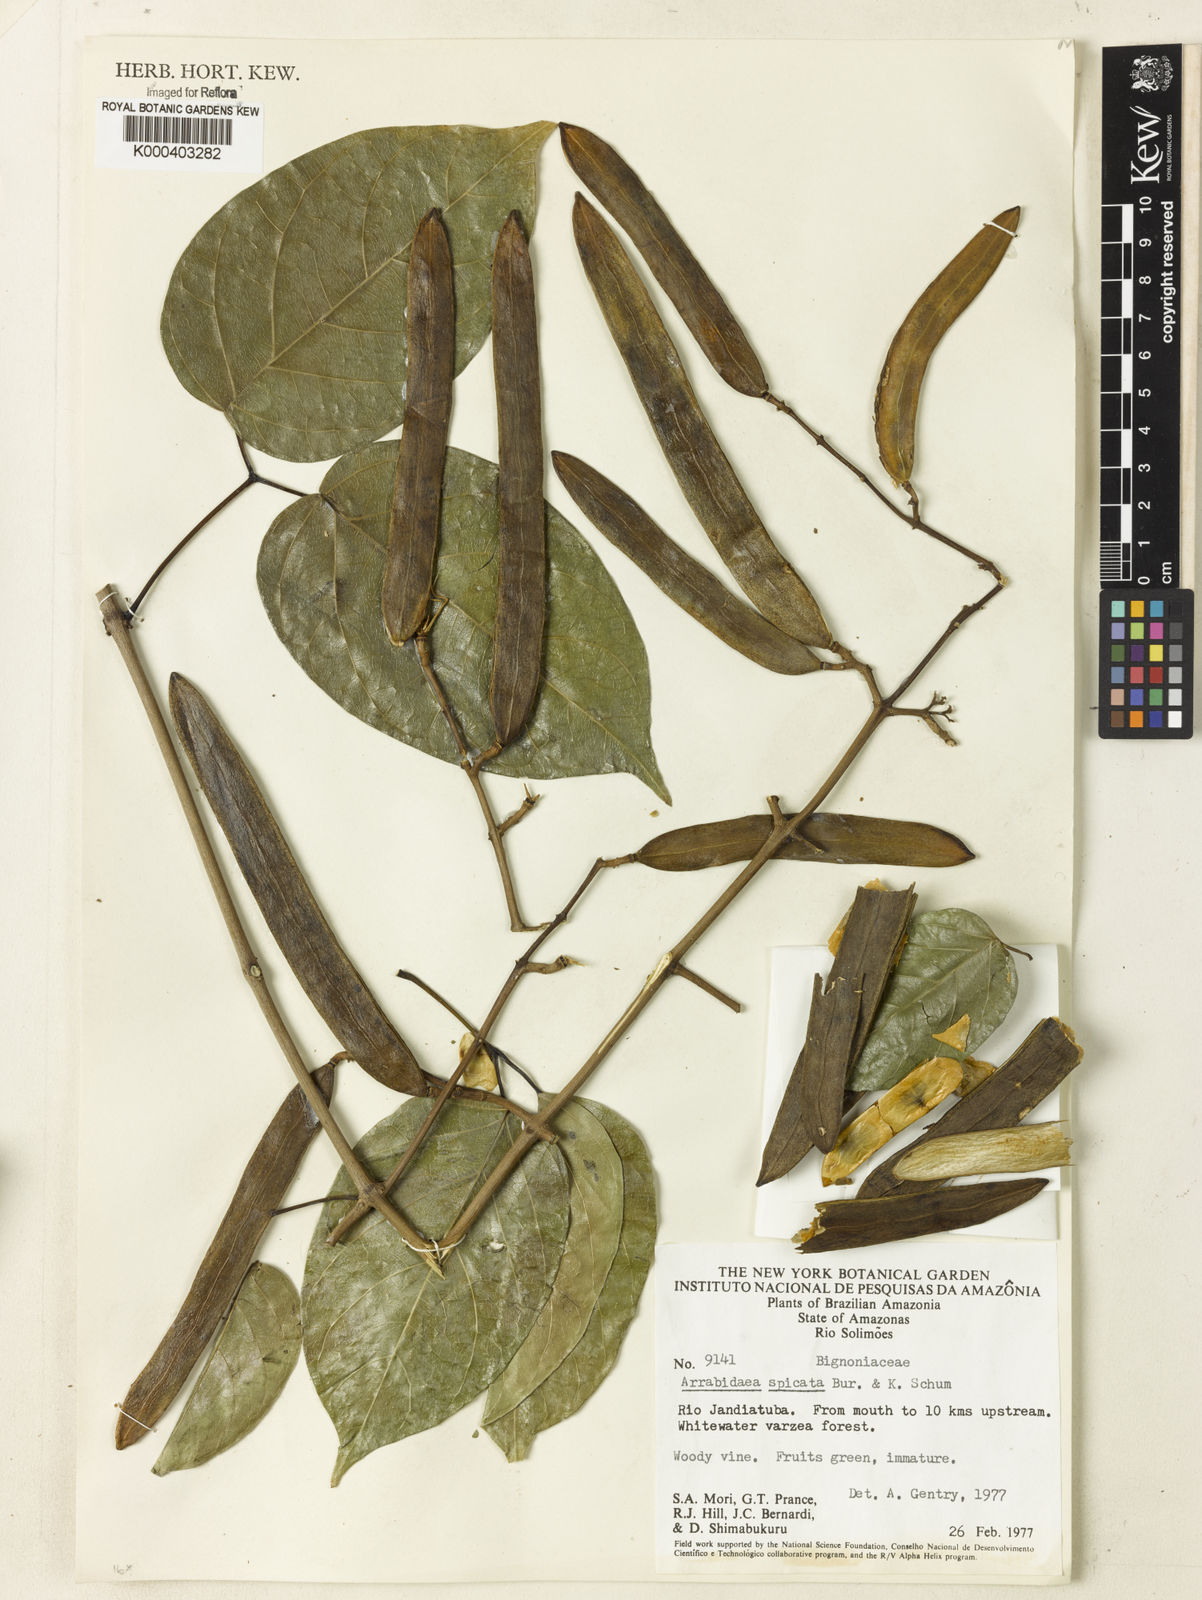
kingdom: Plantae
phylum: Tracheophyta
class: Magnoliopsida
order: Lamiales
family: Bignoniaceae
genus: Fridericia
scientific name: Fridericia spicata
